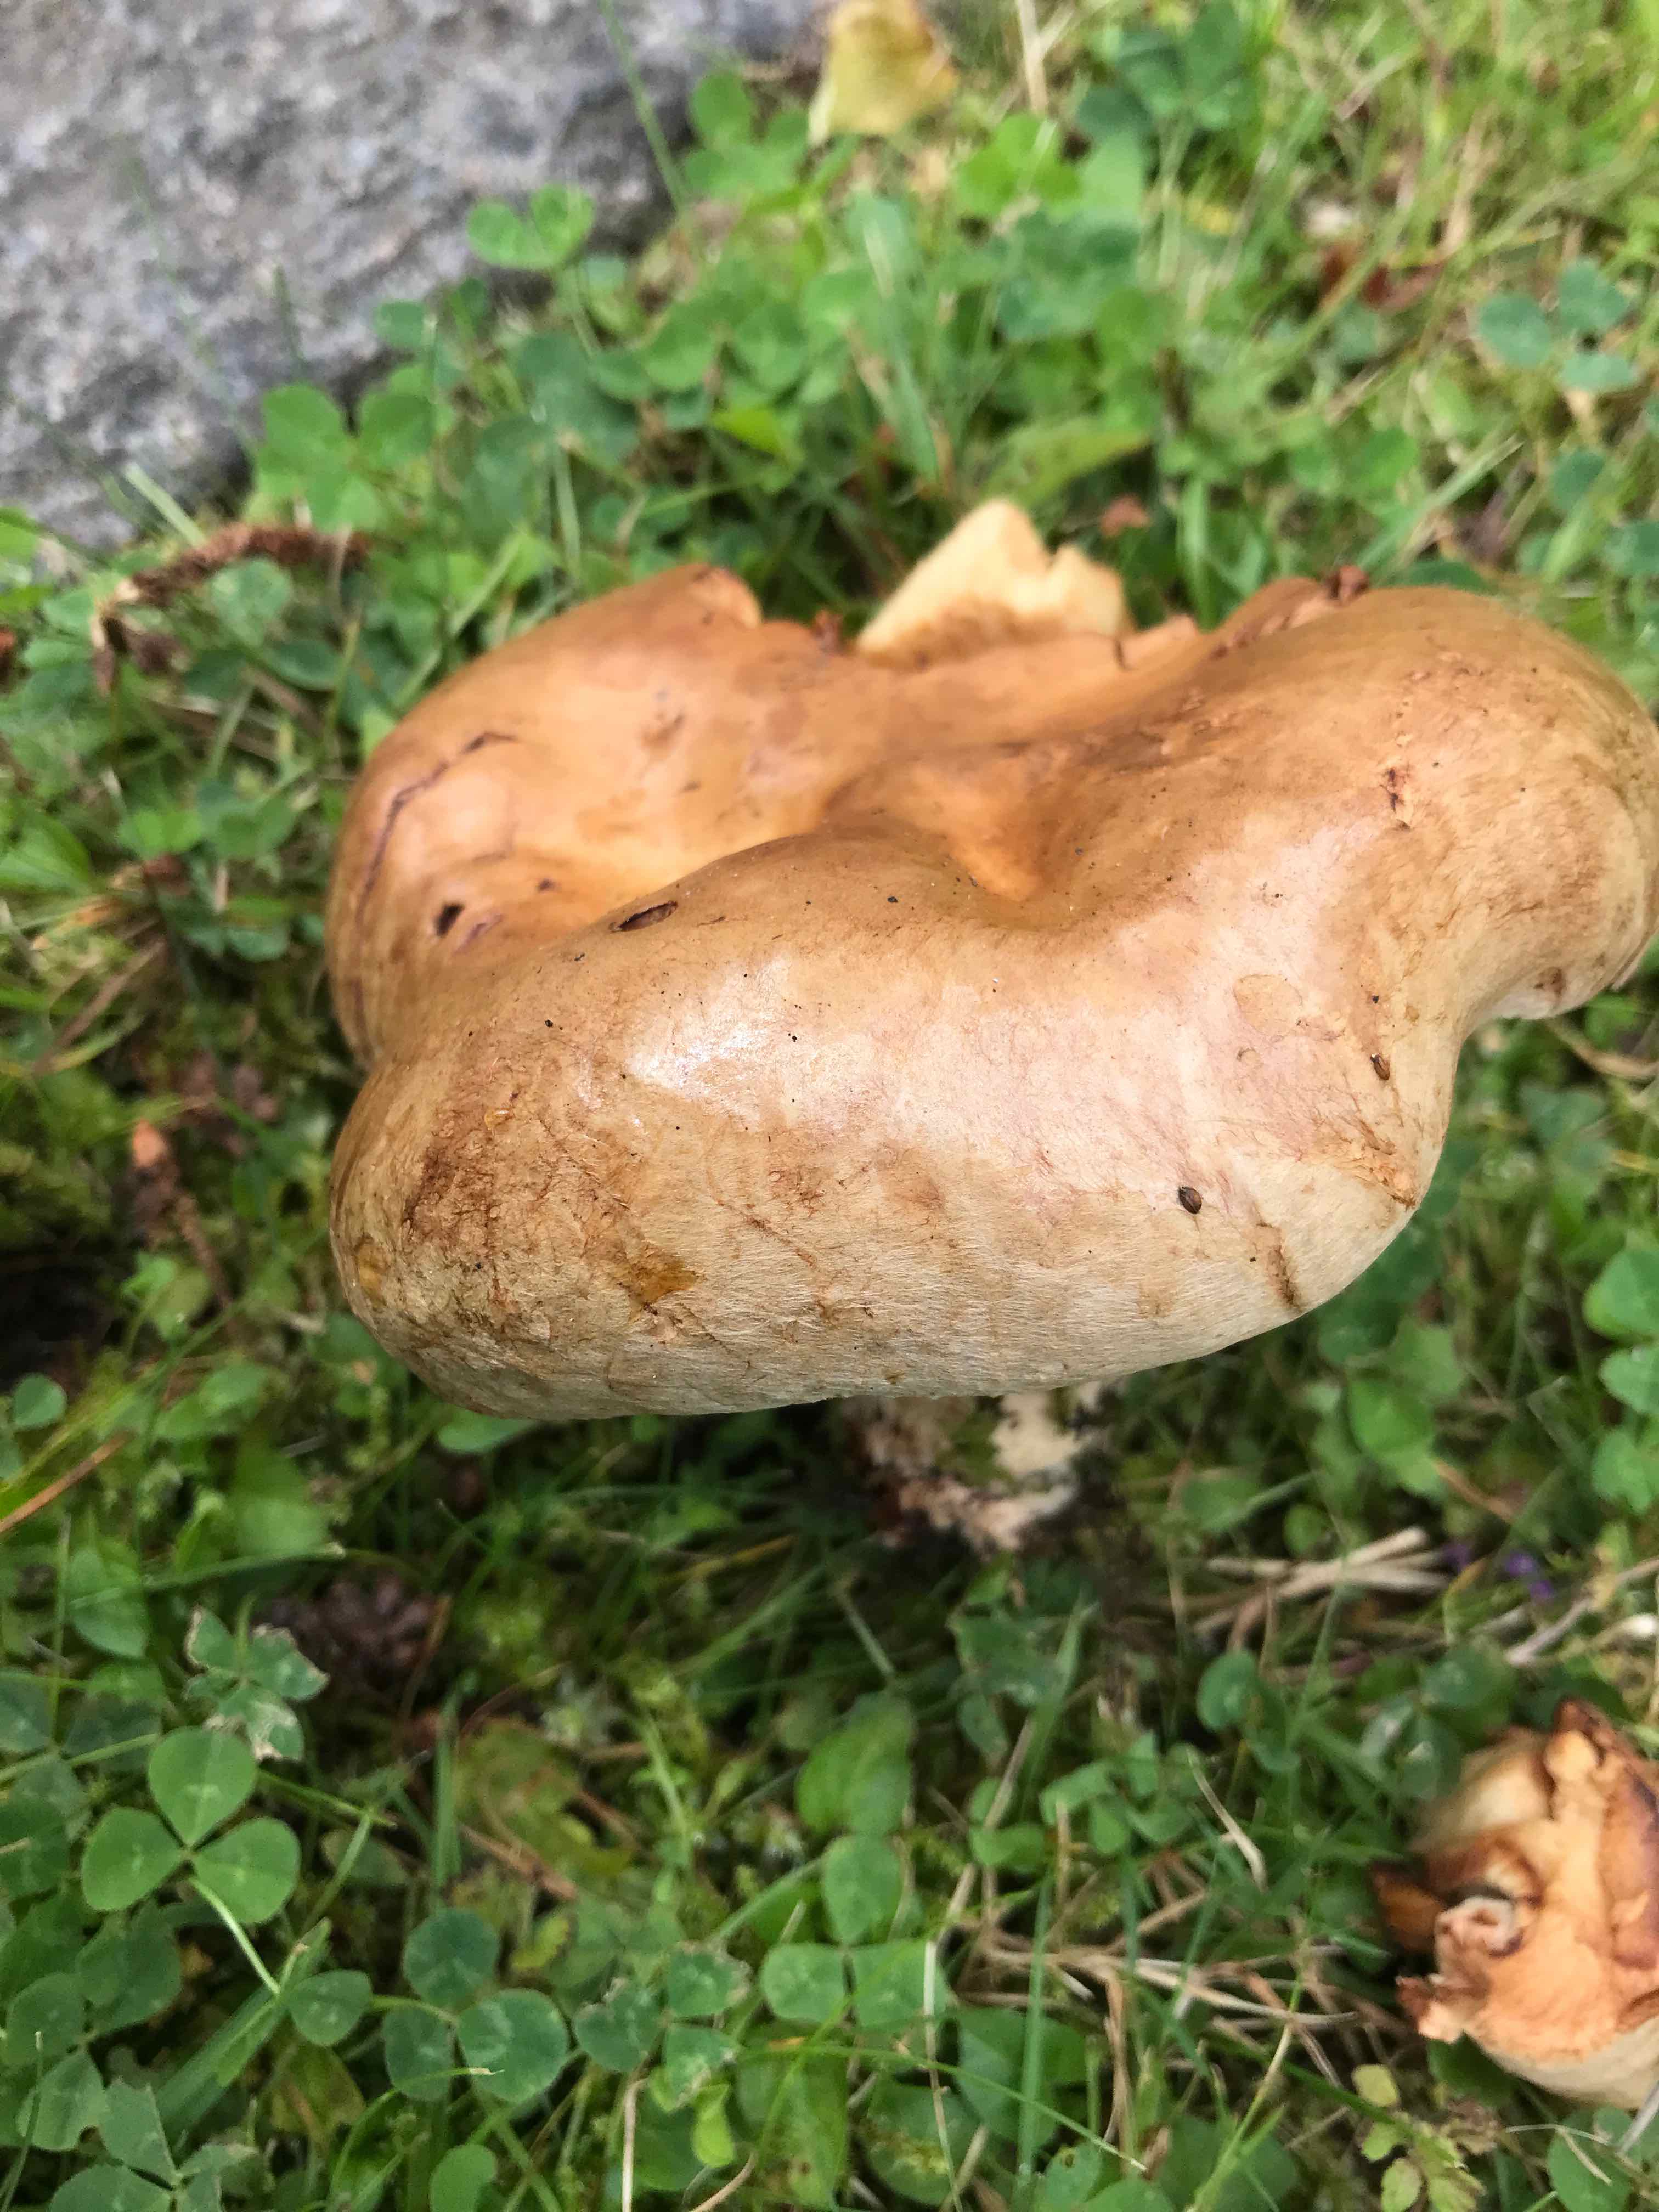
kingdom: Fungi
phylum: Basidiomycota
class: Agaricomycetes
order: Boletales
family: Paxillaceae
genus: Paxillus
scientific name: Paxillus
